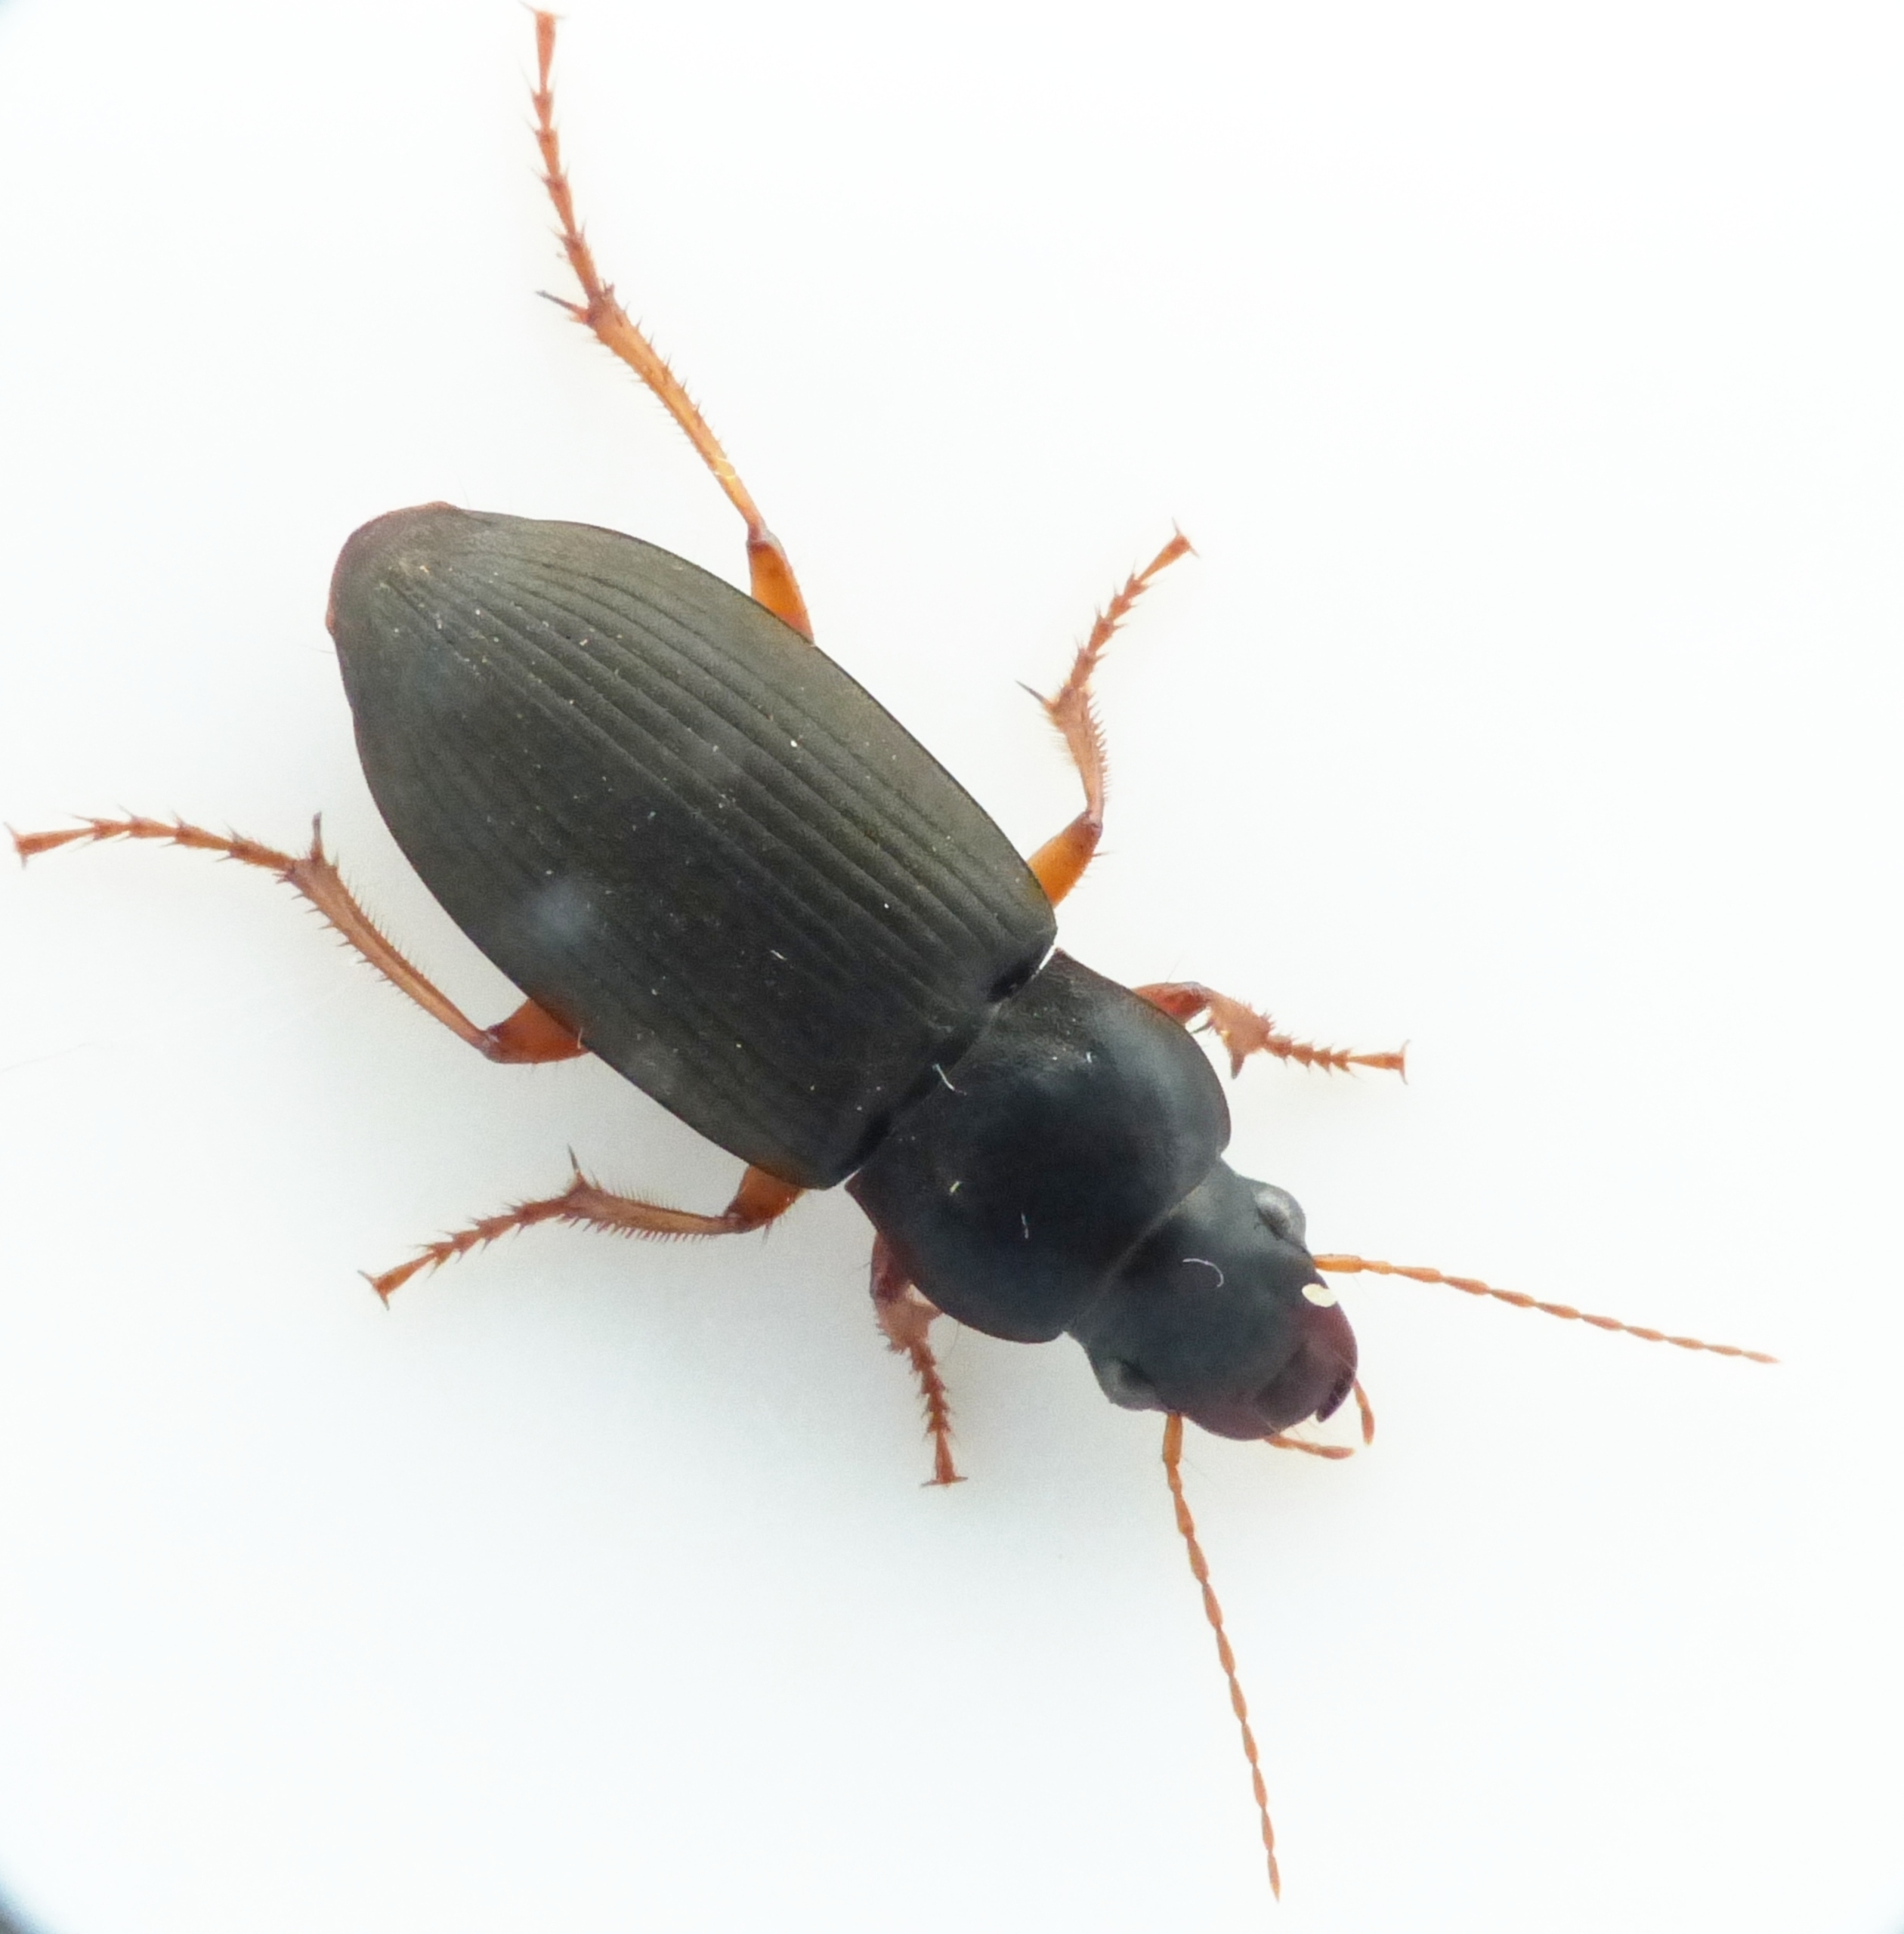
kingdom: Animalia
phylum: Arthropoda
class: Insecta
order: Coleoptera
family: Carabidae
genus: Harpalus
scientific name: Harpalus rufipes
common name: Håret markløber
